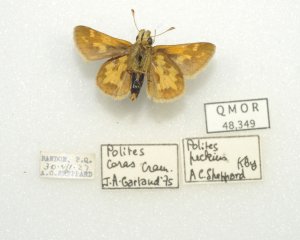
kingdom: Animalia
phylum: Arthropoda
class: Insecta
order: Lepidoptera
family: Hesperiidae
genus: Polites
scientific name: Polites coras
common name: Peck's Skipper
